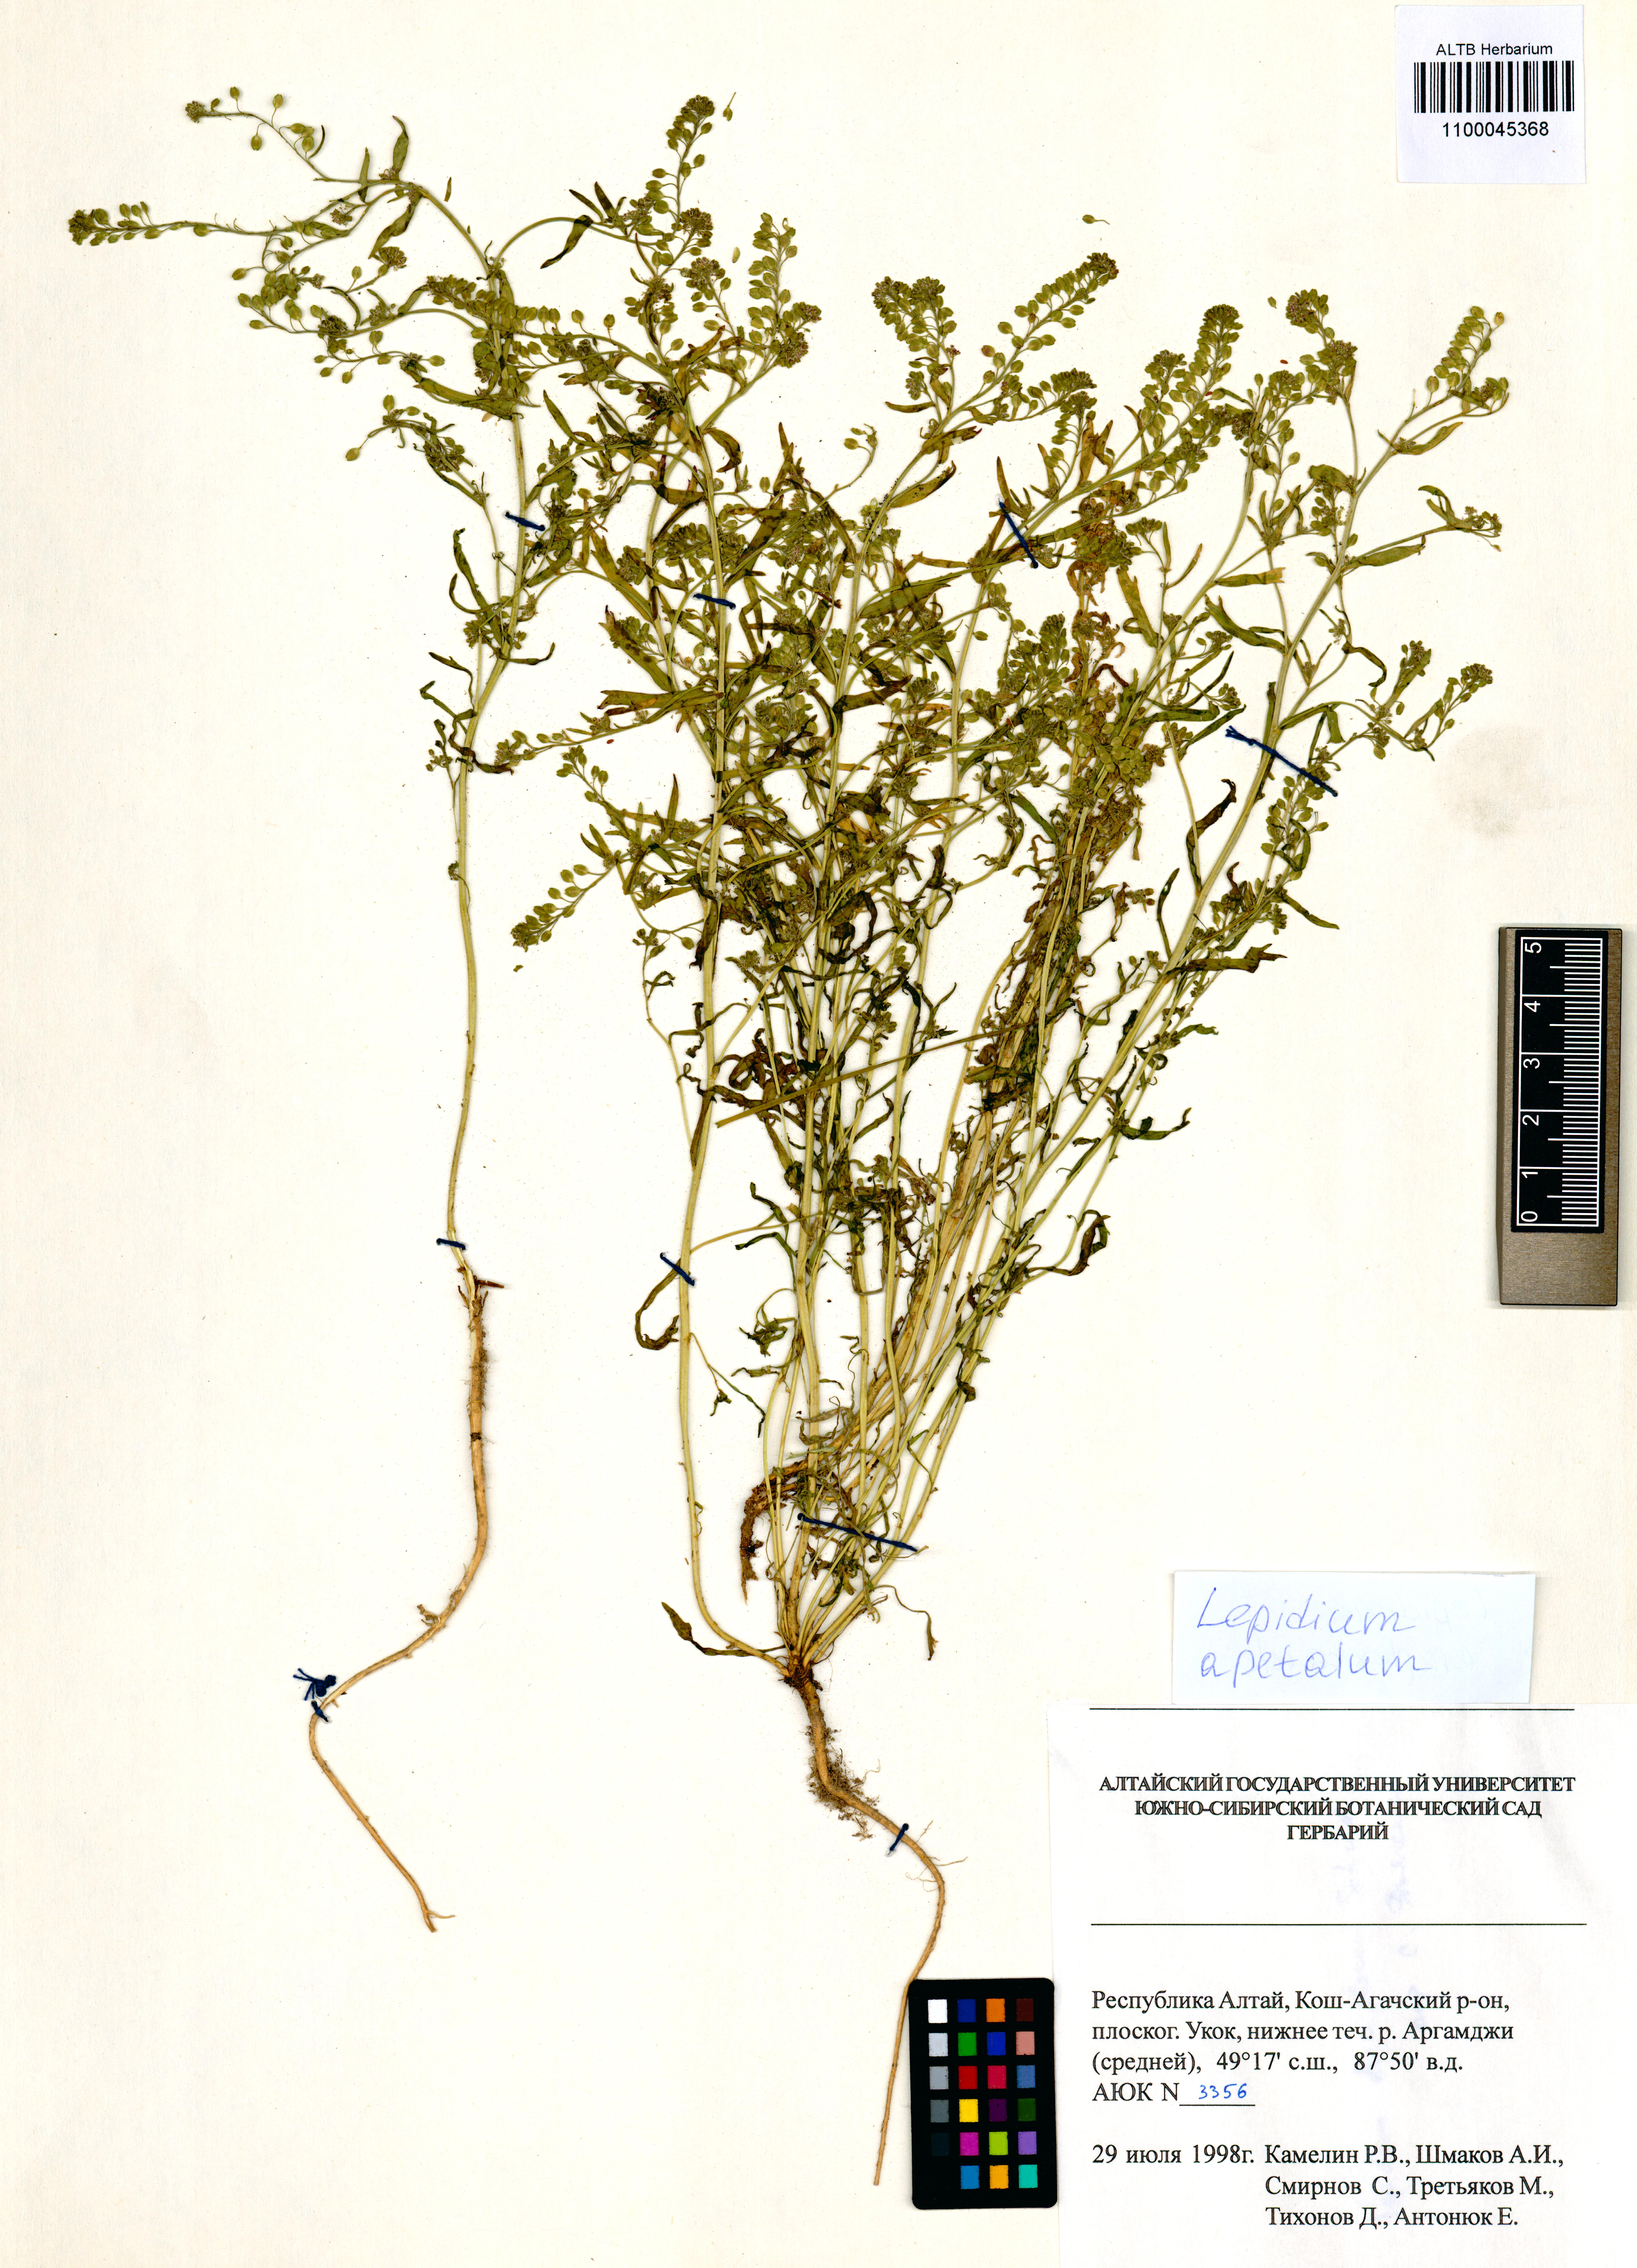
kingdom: Plantae
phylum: Tracheophyta
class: Magnoliopsida
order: Brassicales
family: Brassicaceae
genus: Lepidium
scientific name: Lepidium apetalum
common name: Pepperweed
